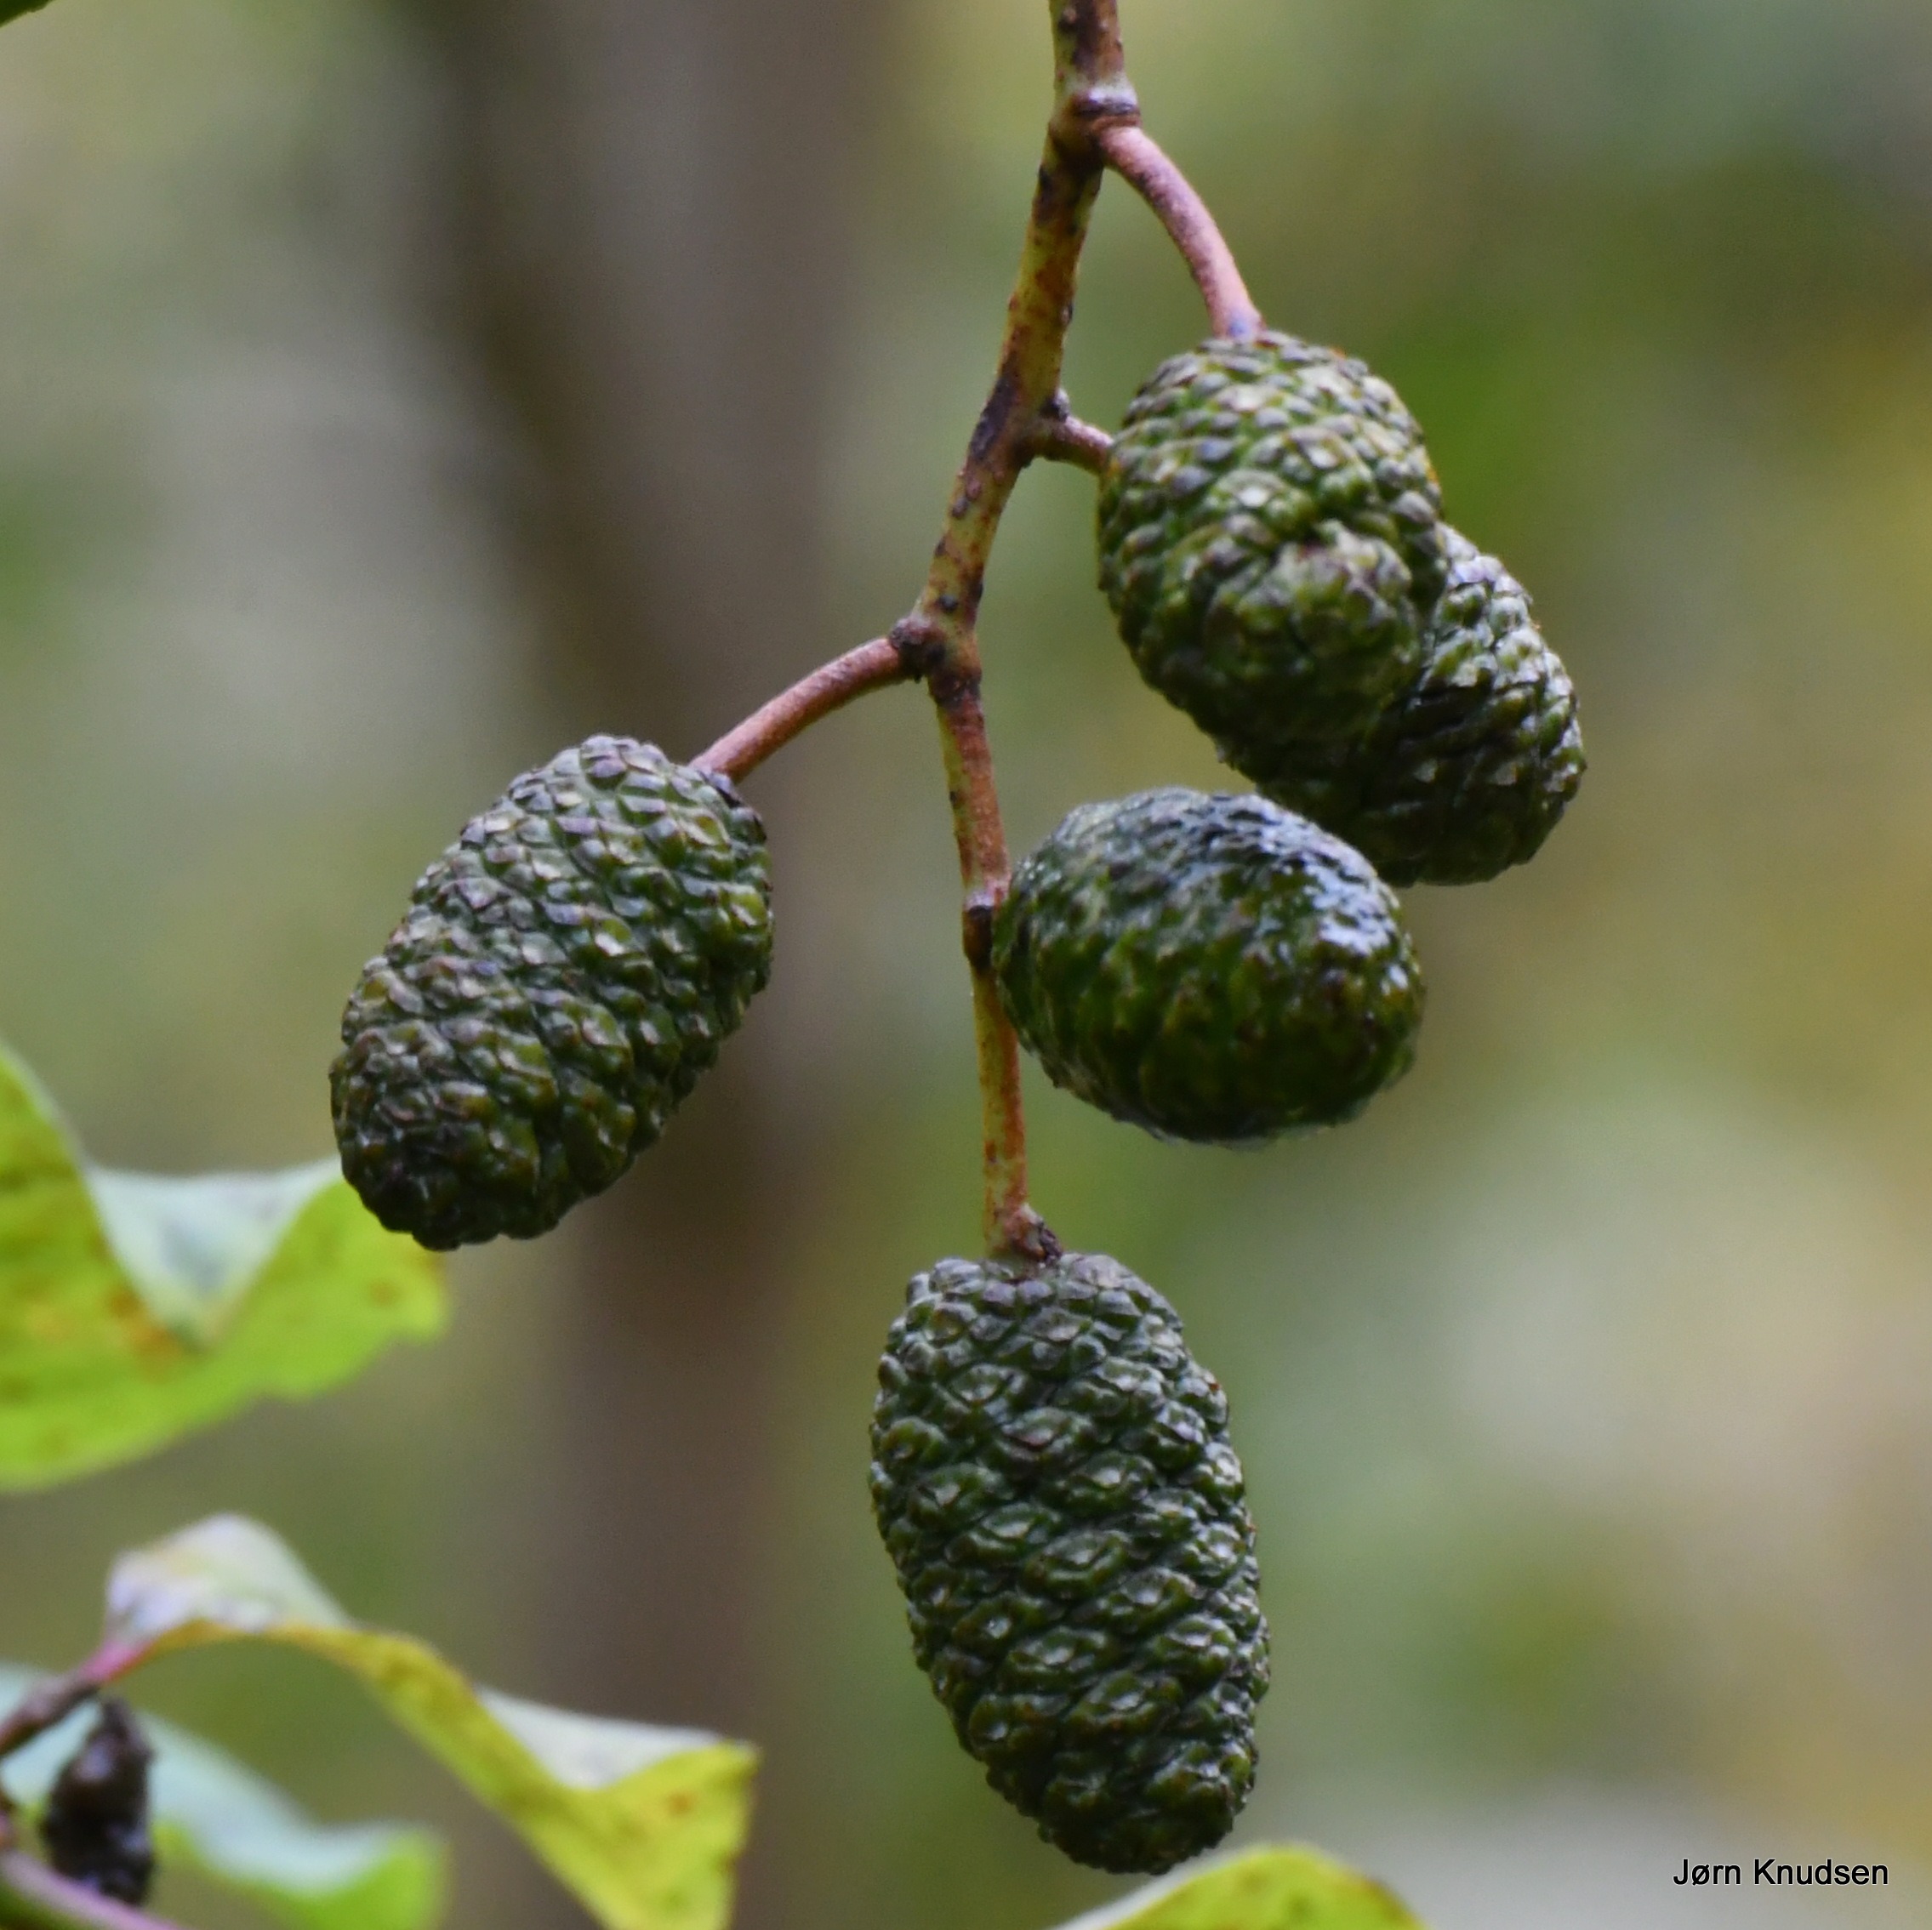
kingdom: Plantae
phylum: Tracheophyta
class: Magnoliopsida
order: Fagales
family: Betulaceae
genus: Alnus
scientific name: Alnus glutinosa
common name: Rød-el
